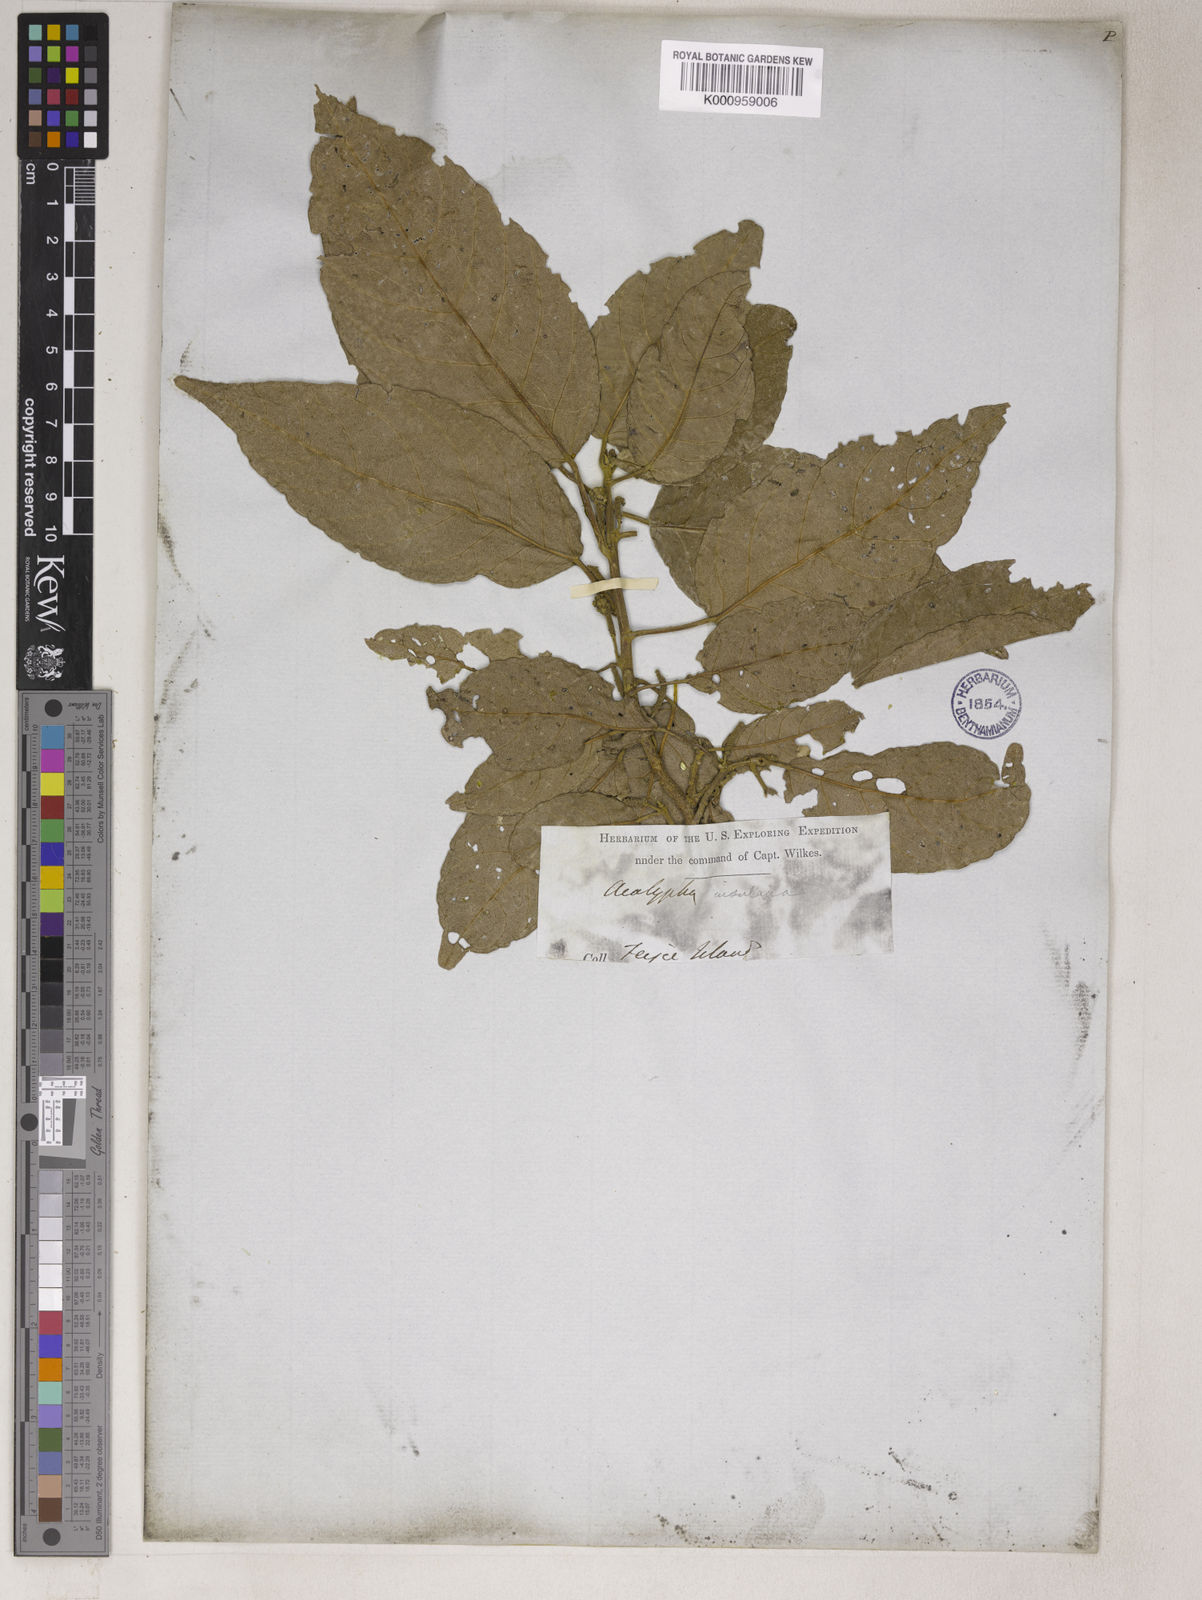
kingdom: Plantae
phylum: Tracheophyta
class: Magnoliopsida
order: Malpighiales
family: Euphorbiaceae
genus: Acalypha
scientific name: Acalypha
